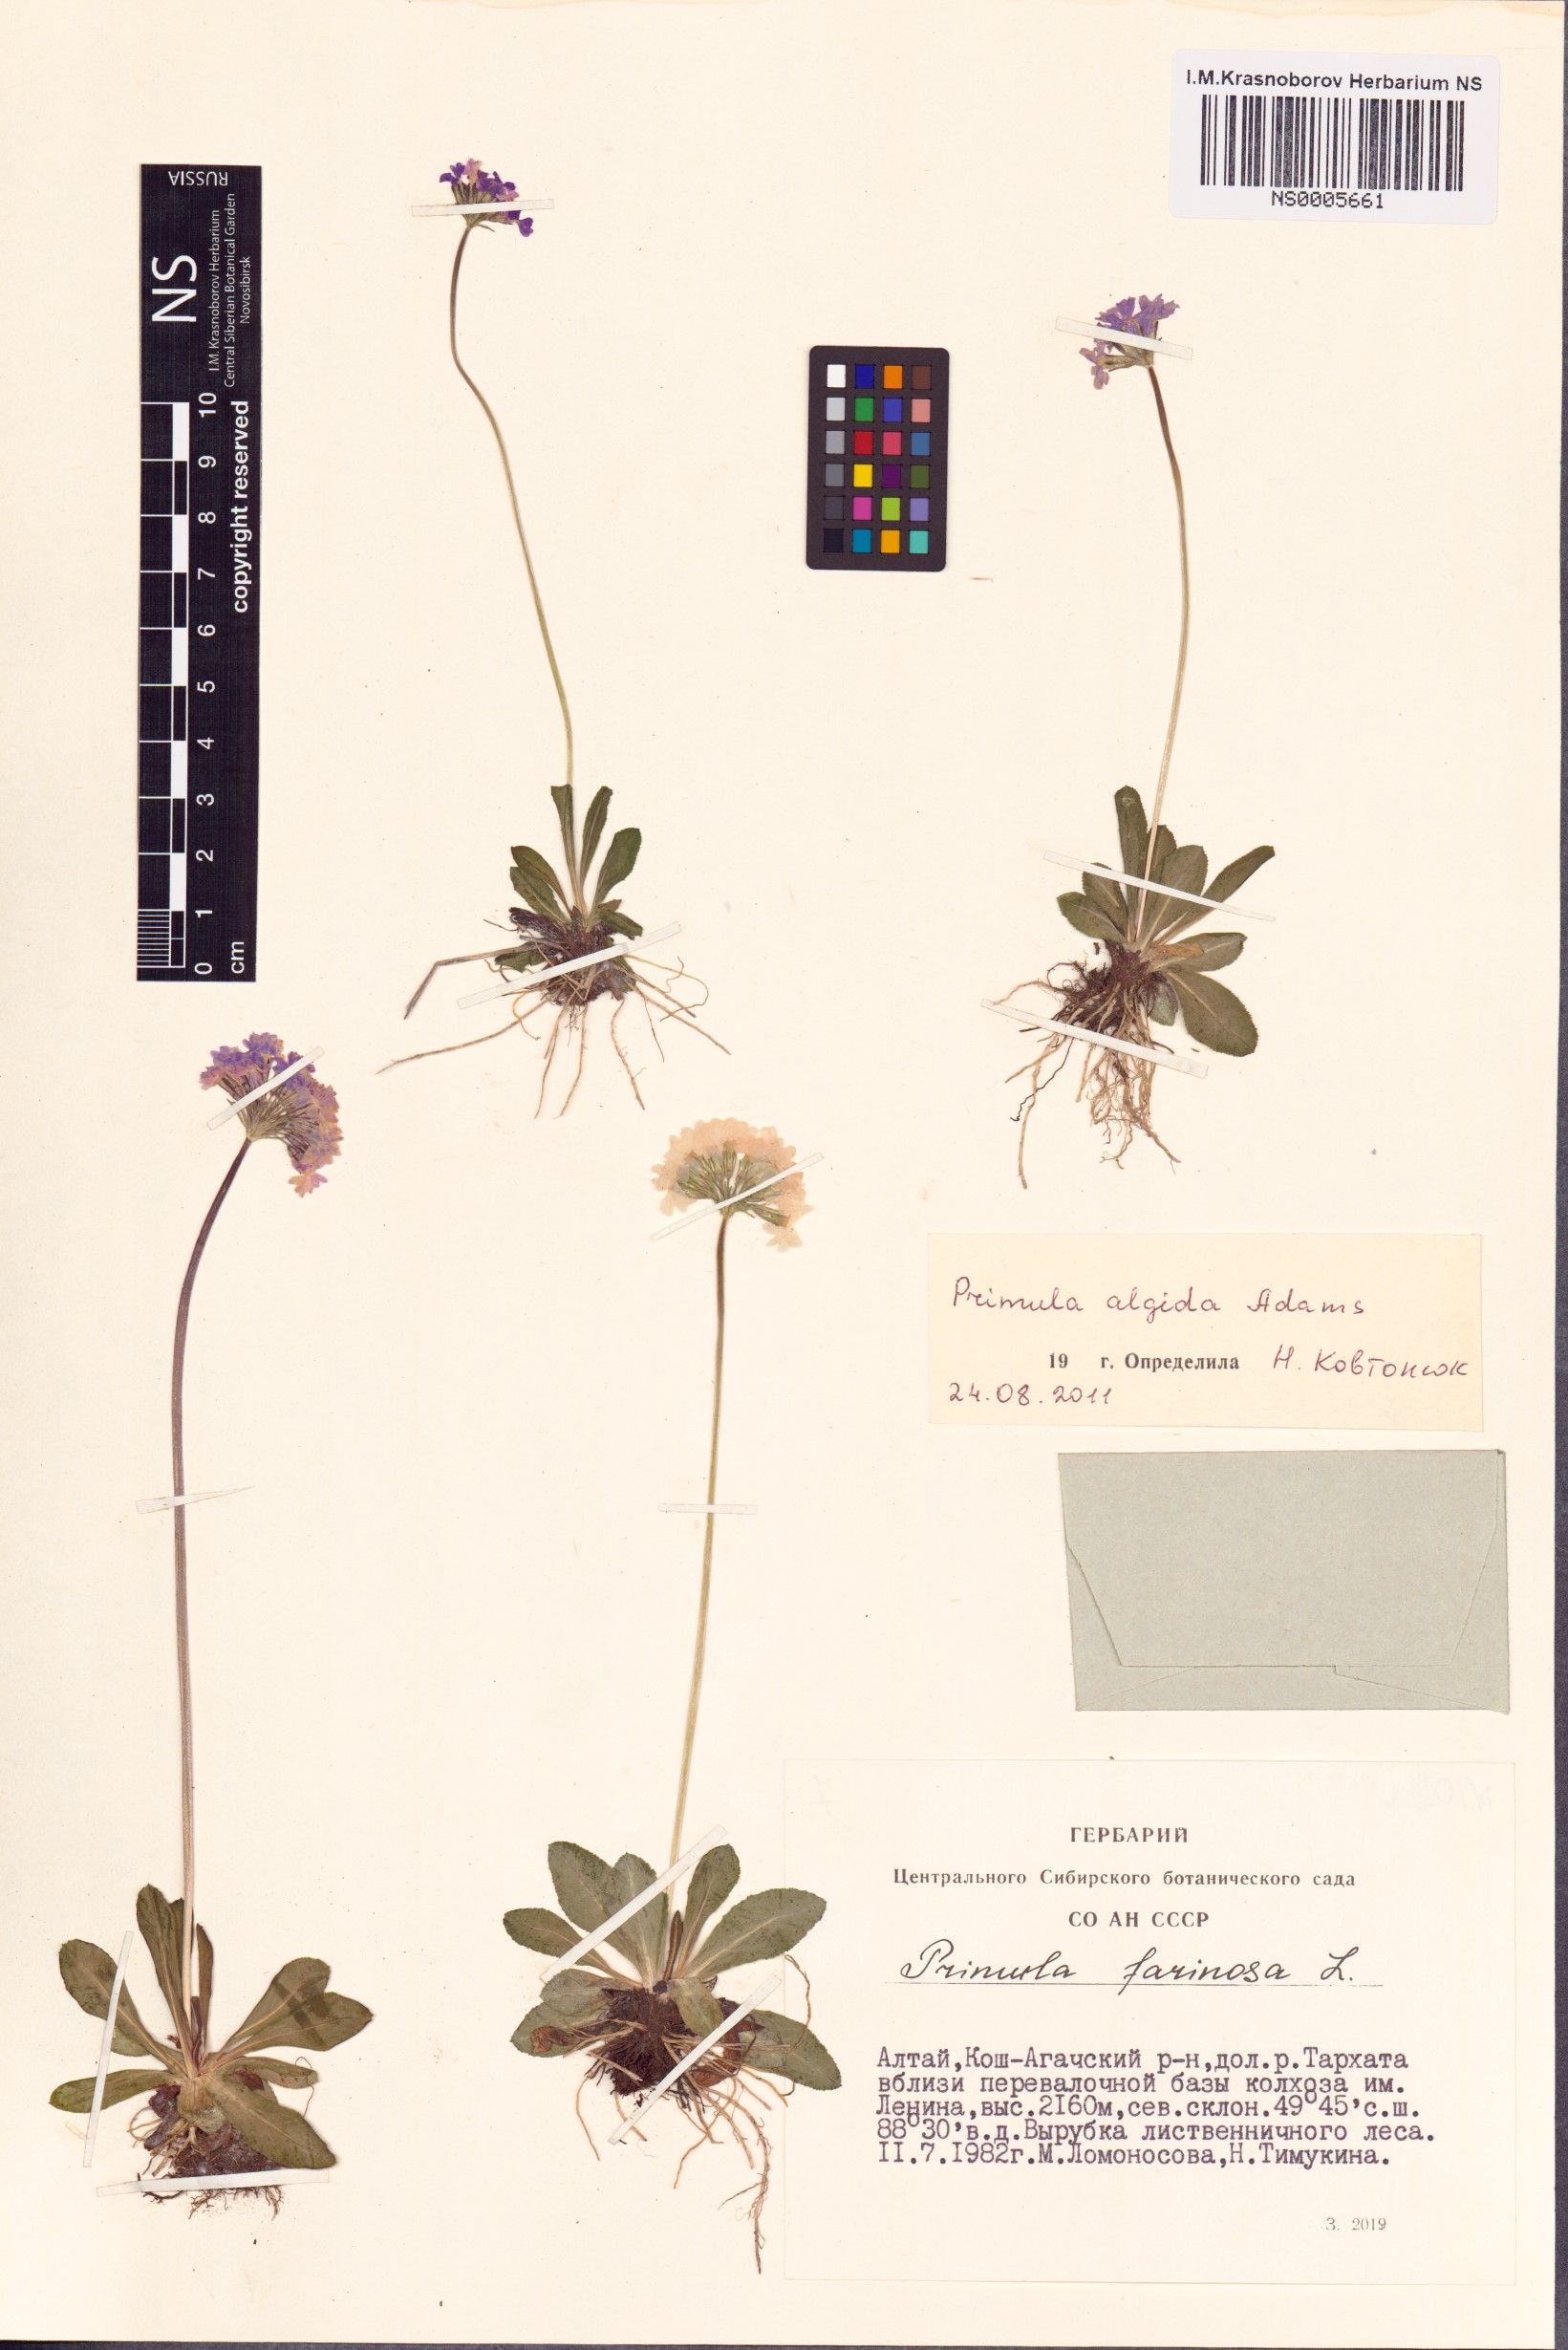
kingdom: Plantae
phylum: Tracheophyta
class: Magnoliopsida
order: Ericales
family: Primulaceae
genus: Primula
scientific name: Primula algida
